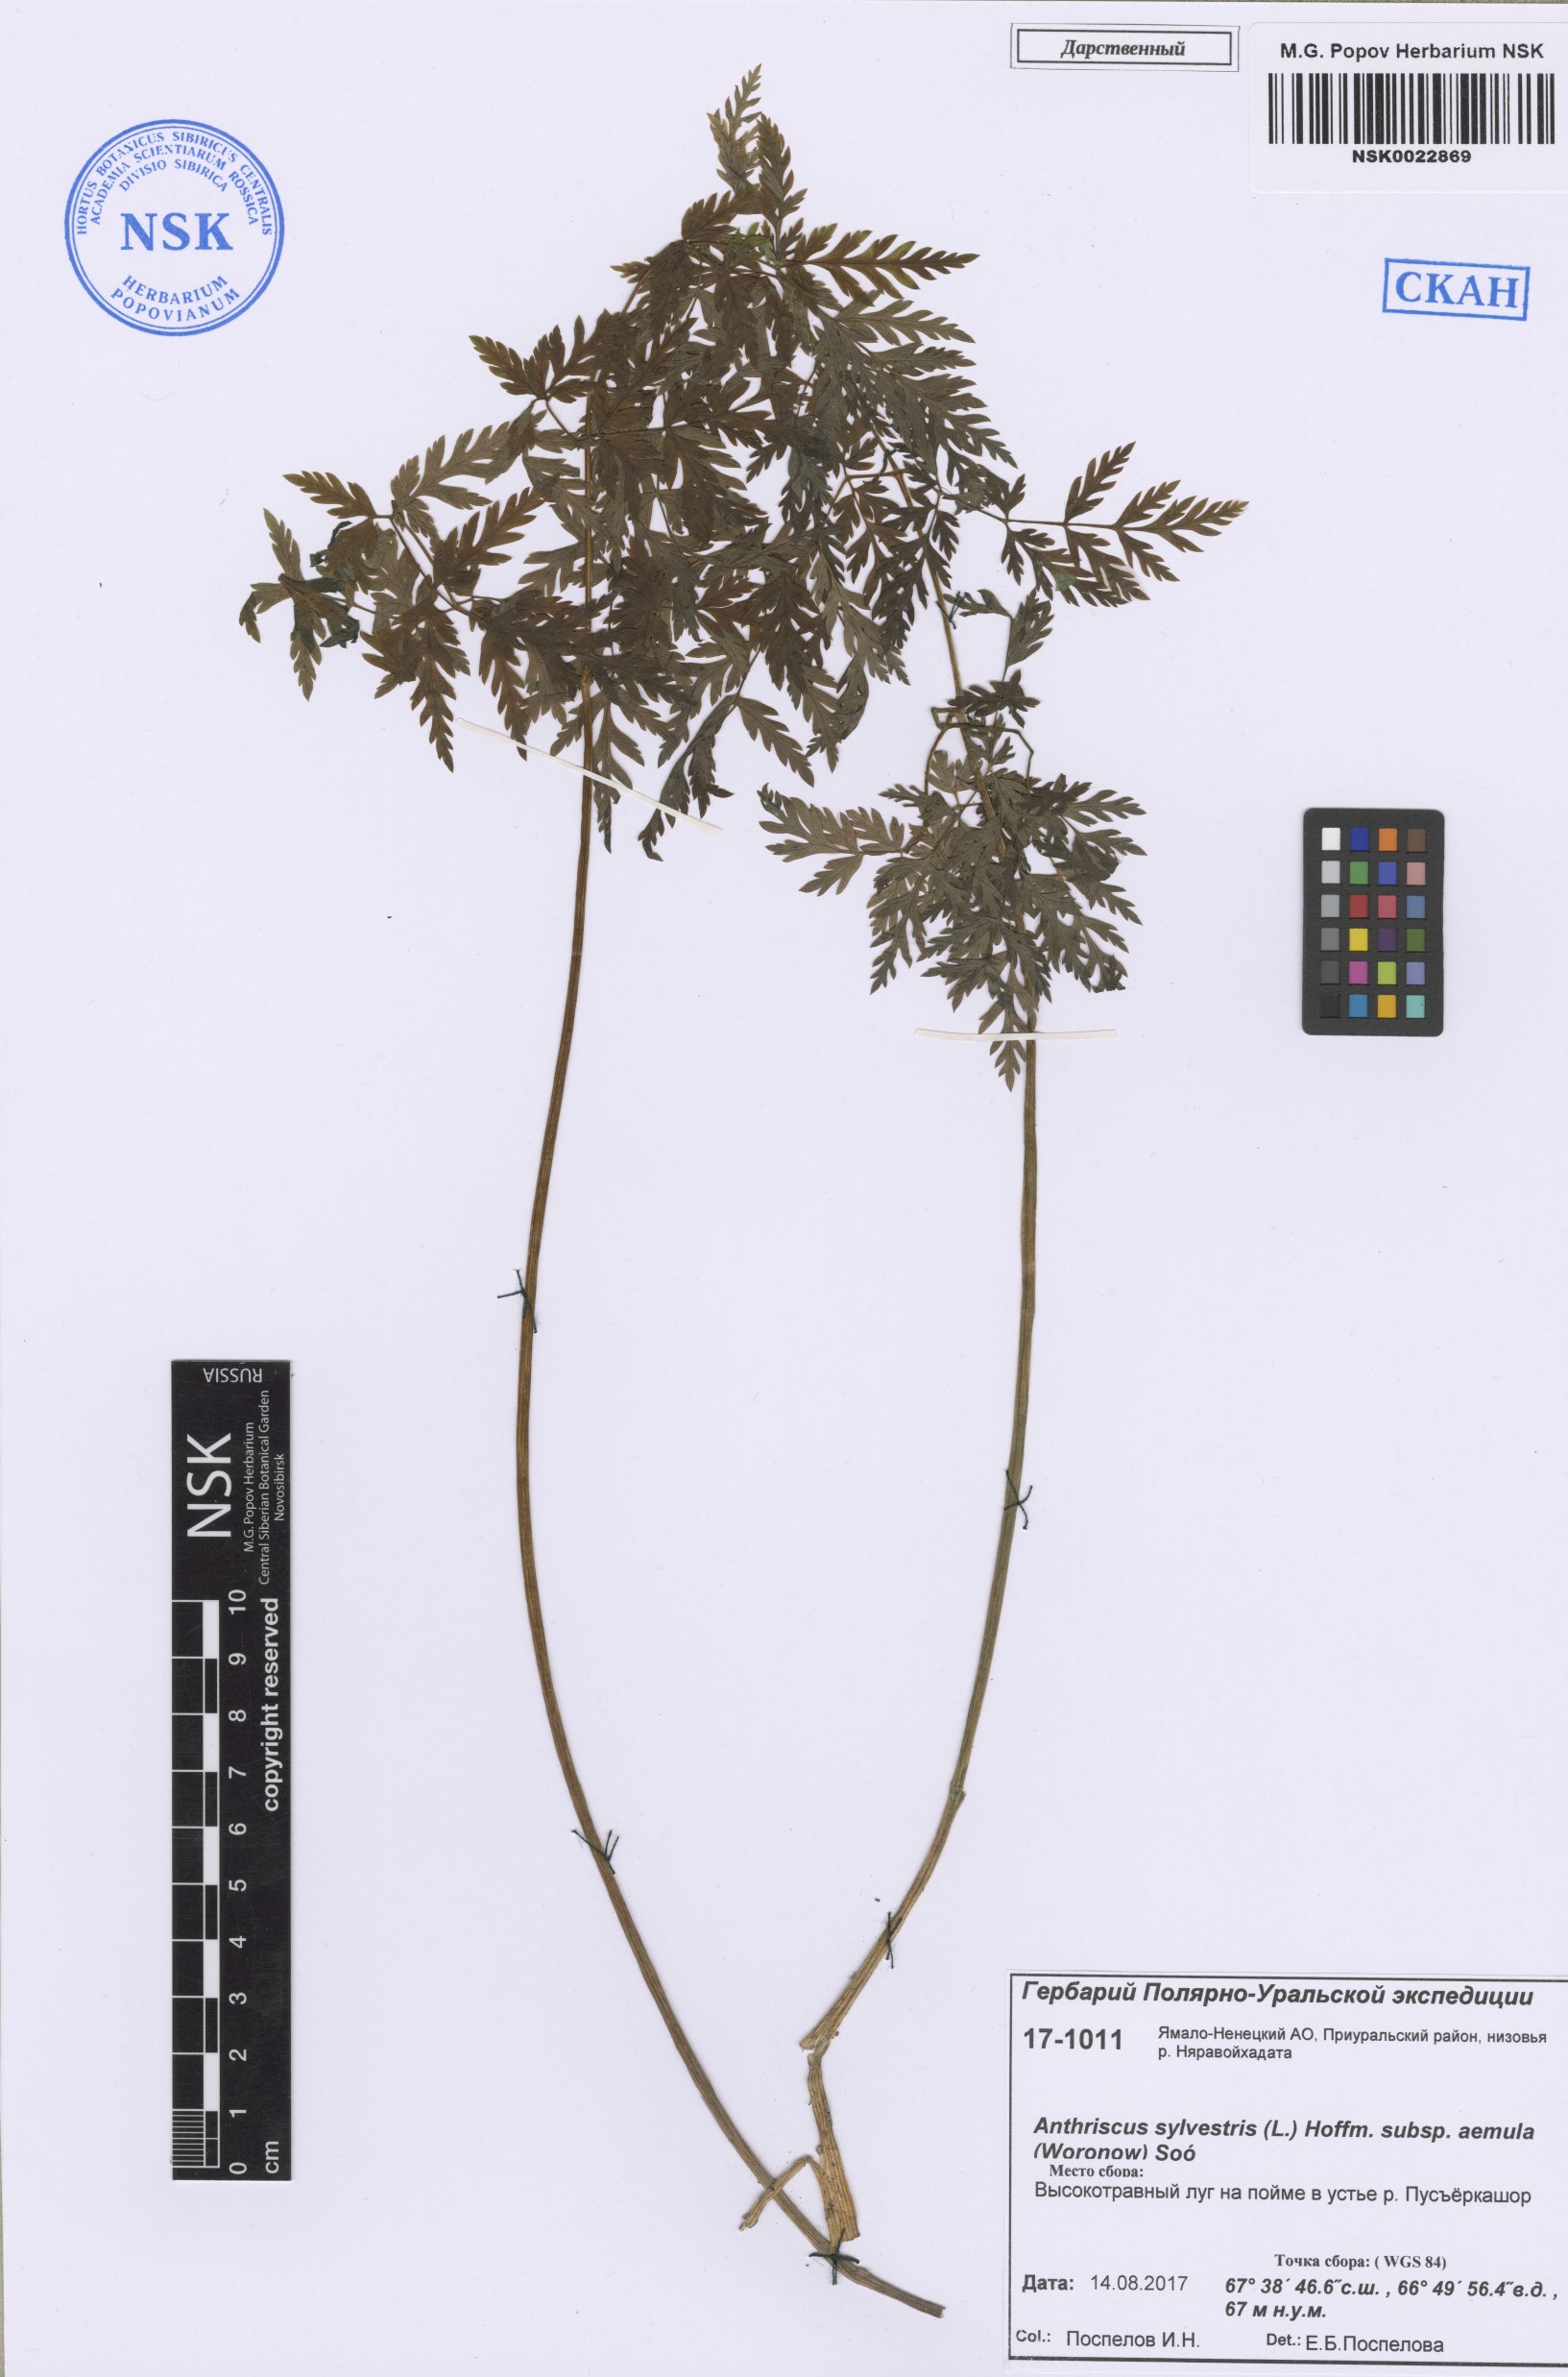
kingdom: Plantae
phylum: Tracheophyta
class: Magnoliopsida
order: Apiales
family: Apiaceae
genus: Anthriscus
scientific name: Anthriscus sylvestris
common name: Cow parsley
